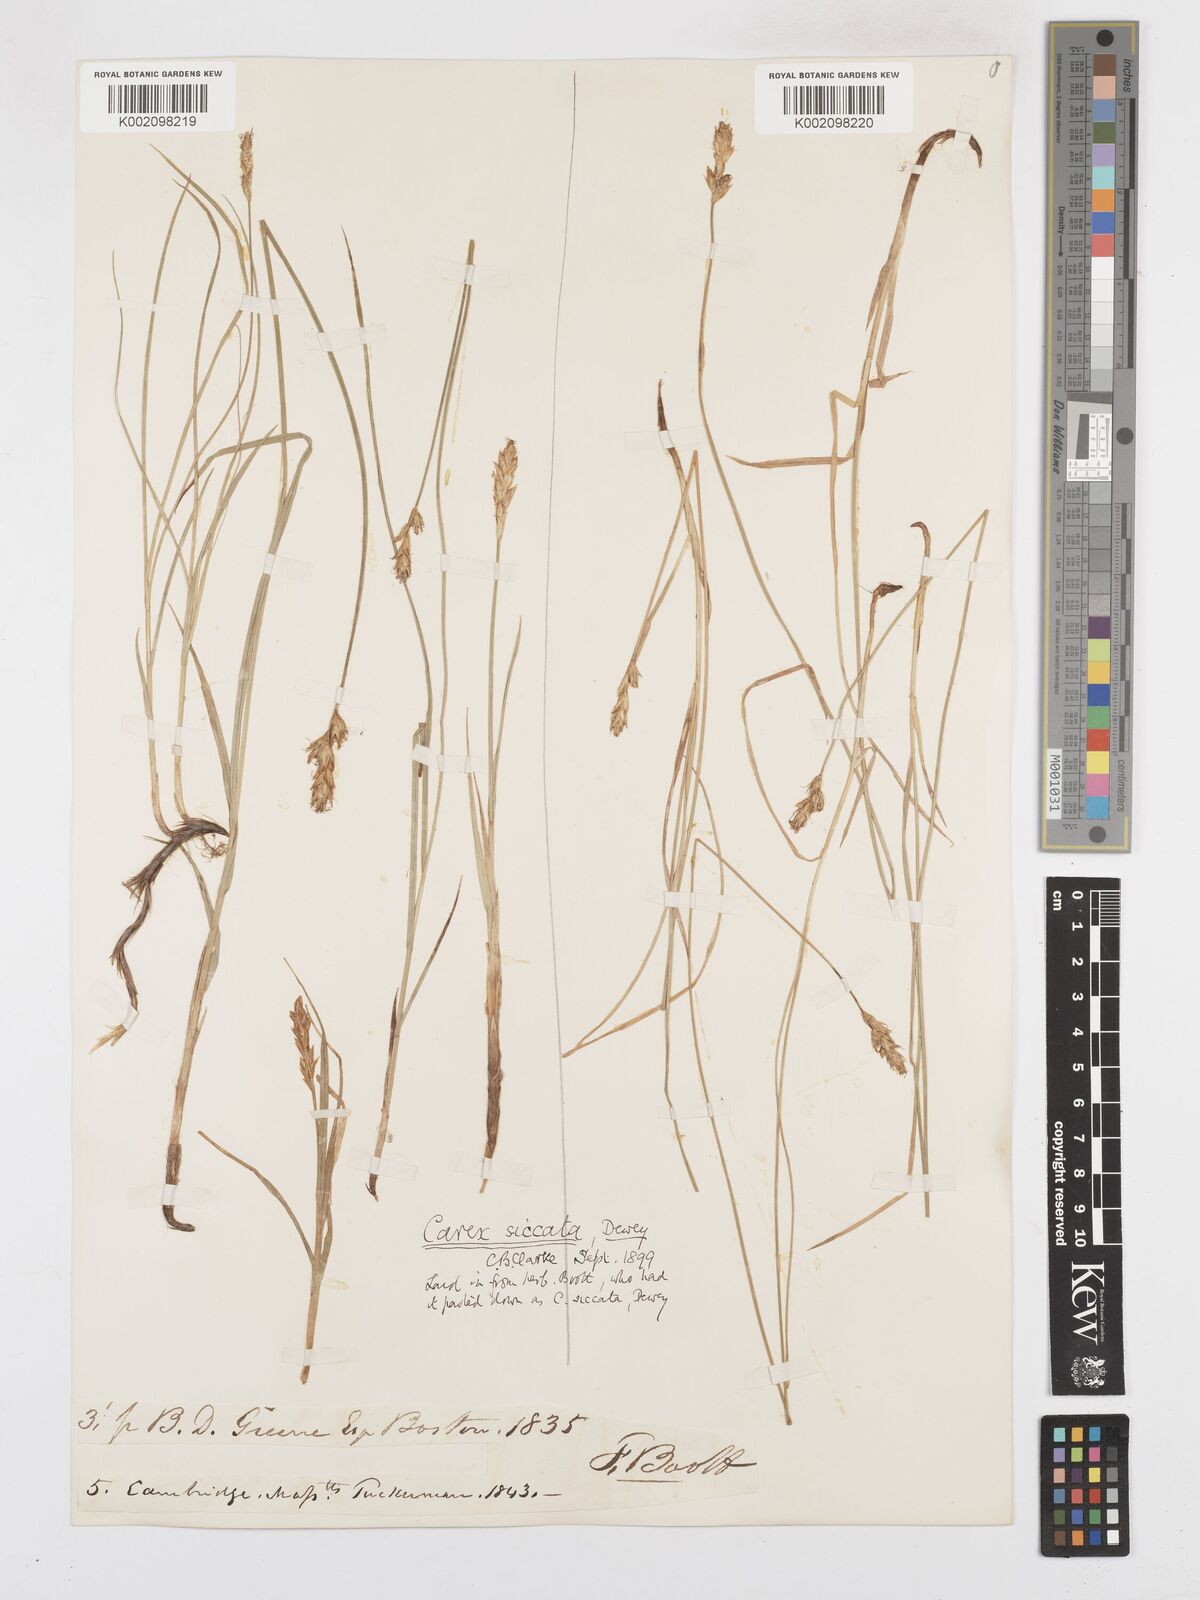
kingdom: Plantae
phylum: Tracheophyta
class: Liliopsida
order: Poales
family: Cyperaceae
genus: Carex
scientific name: Carex foenea
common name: Bronze sedge
